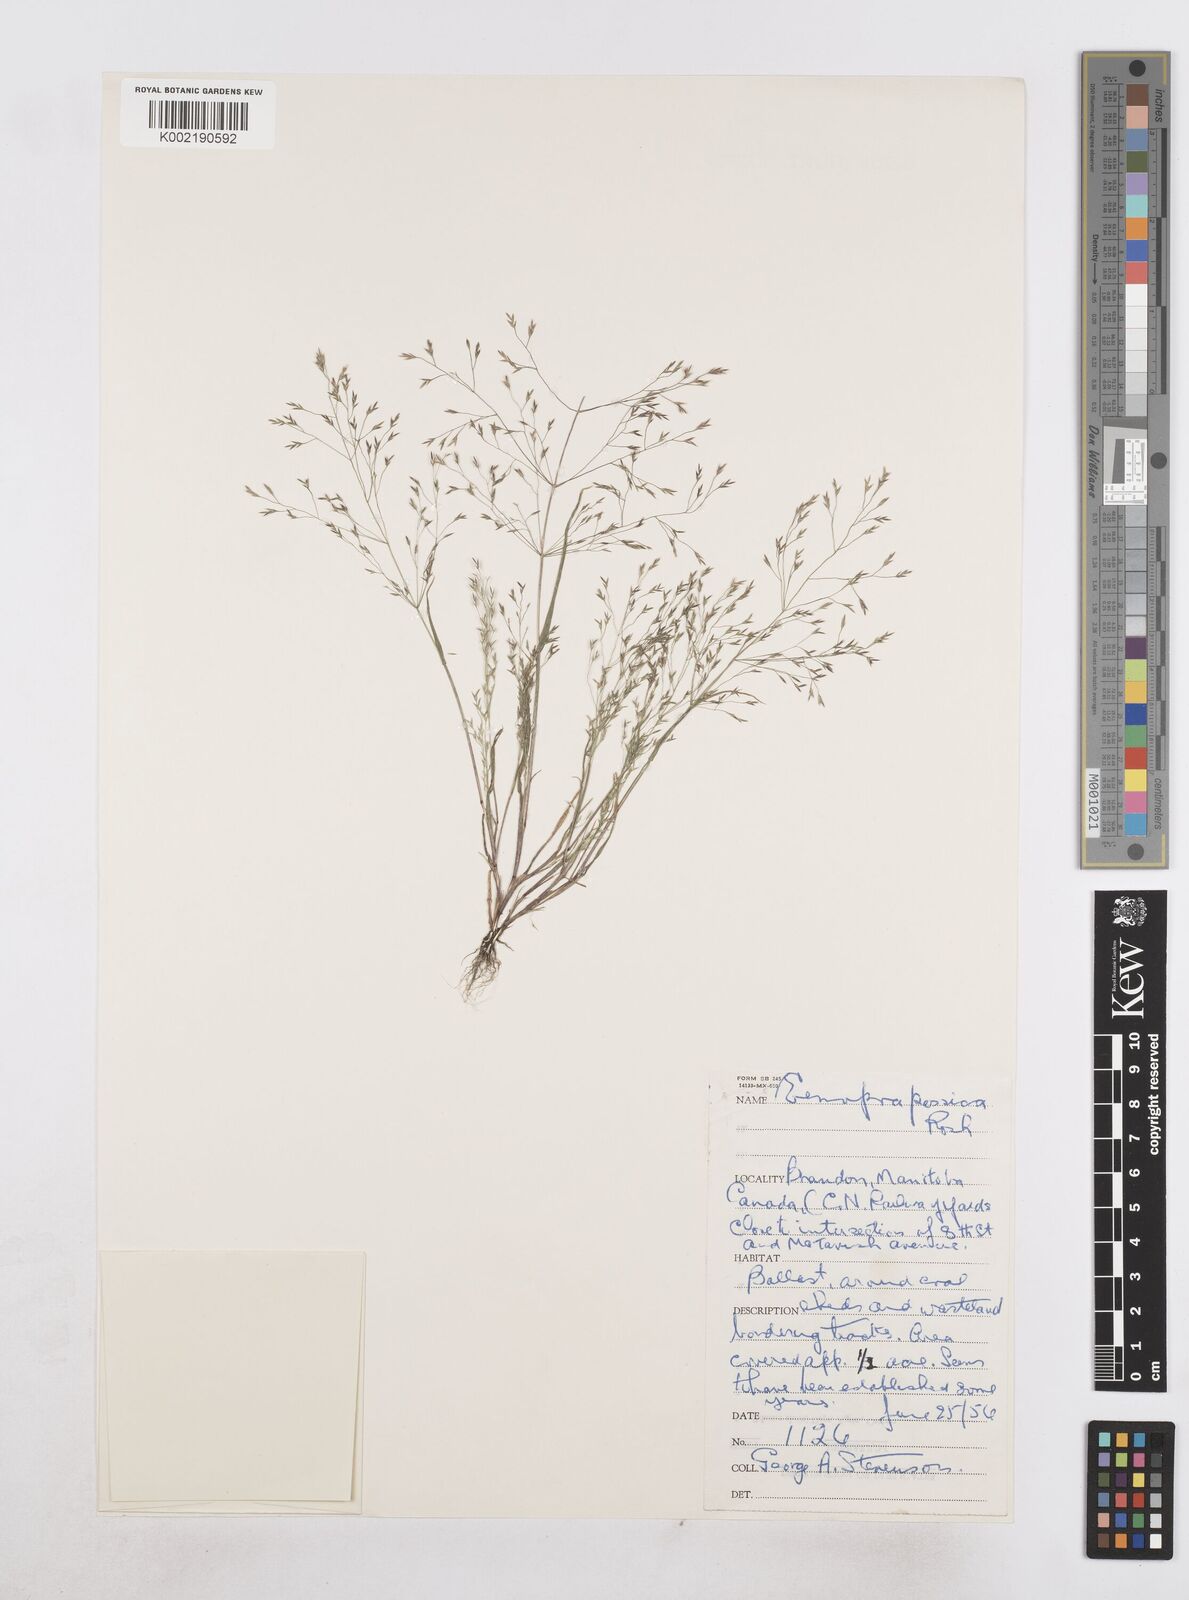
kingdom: Plantae
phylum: Tracheophyta
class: Liliopsida
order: Poales
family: Poaceae
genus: Poa
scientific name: Poa diaphora
